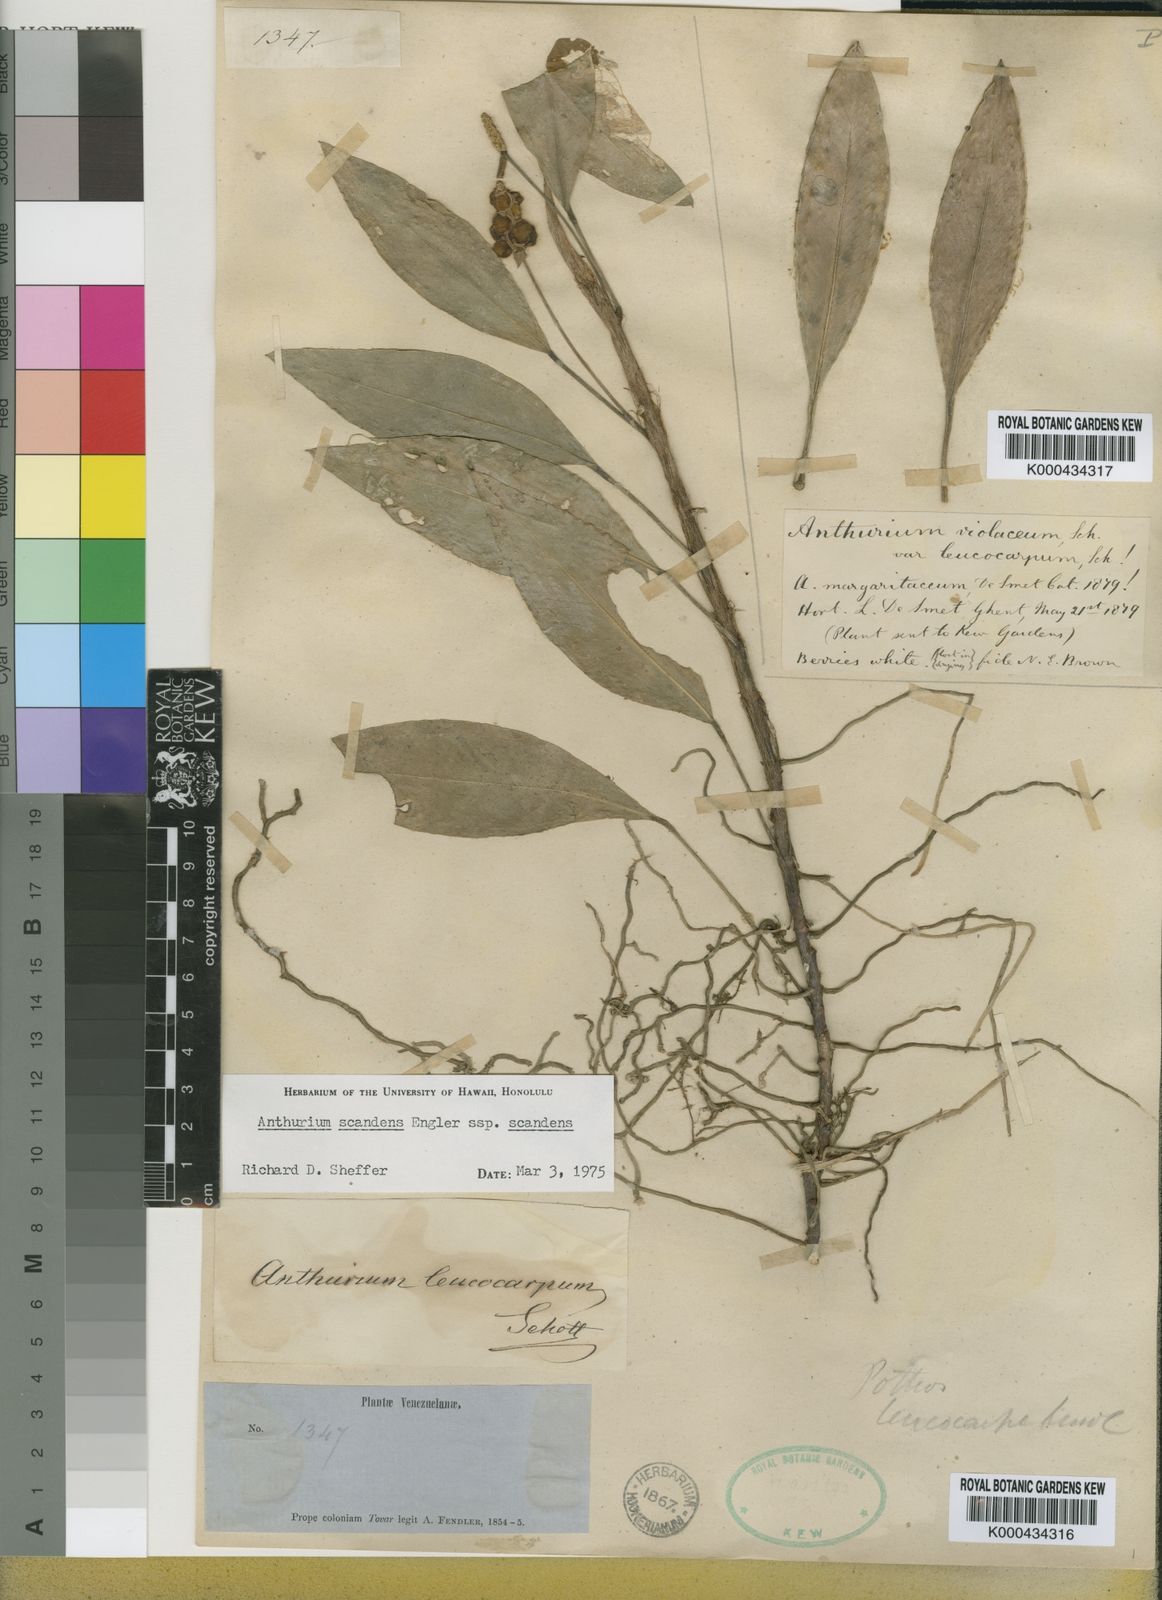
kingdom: Plantae
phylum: Tracheophyta
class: Liliopsida
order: Alismatales
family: Araceae
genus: Anthurium
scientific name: Anthurium scandens
